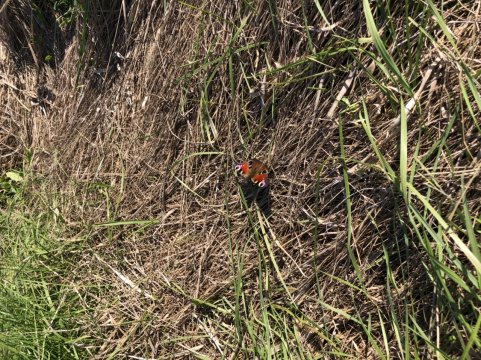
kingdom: Animalia
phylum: Arthropoda
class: Insecta
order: Lepidoptera
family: Nymphalidae
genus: Aglais
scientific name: Aglais io
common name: European Peacock
